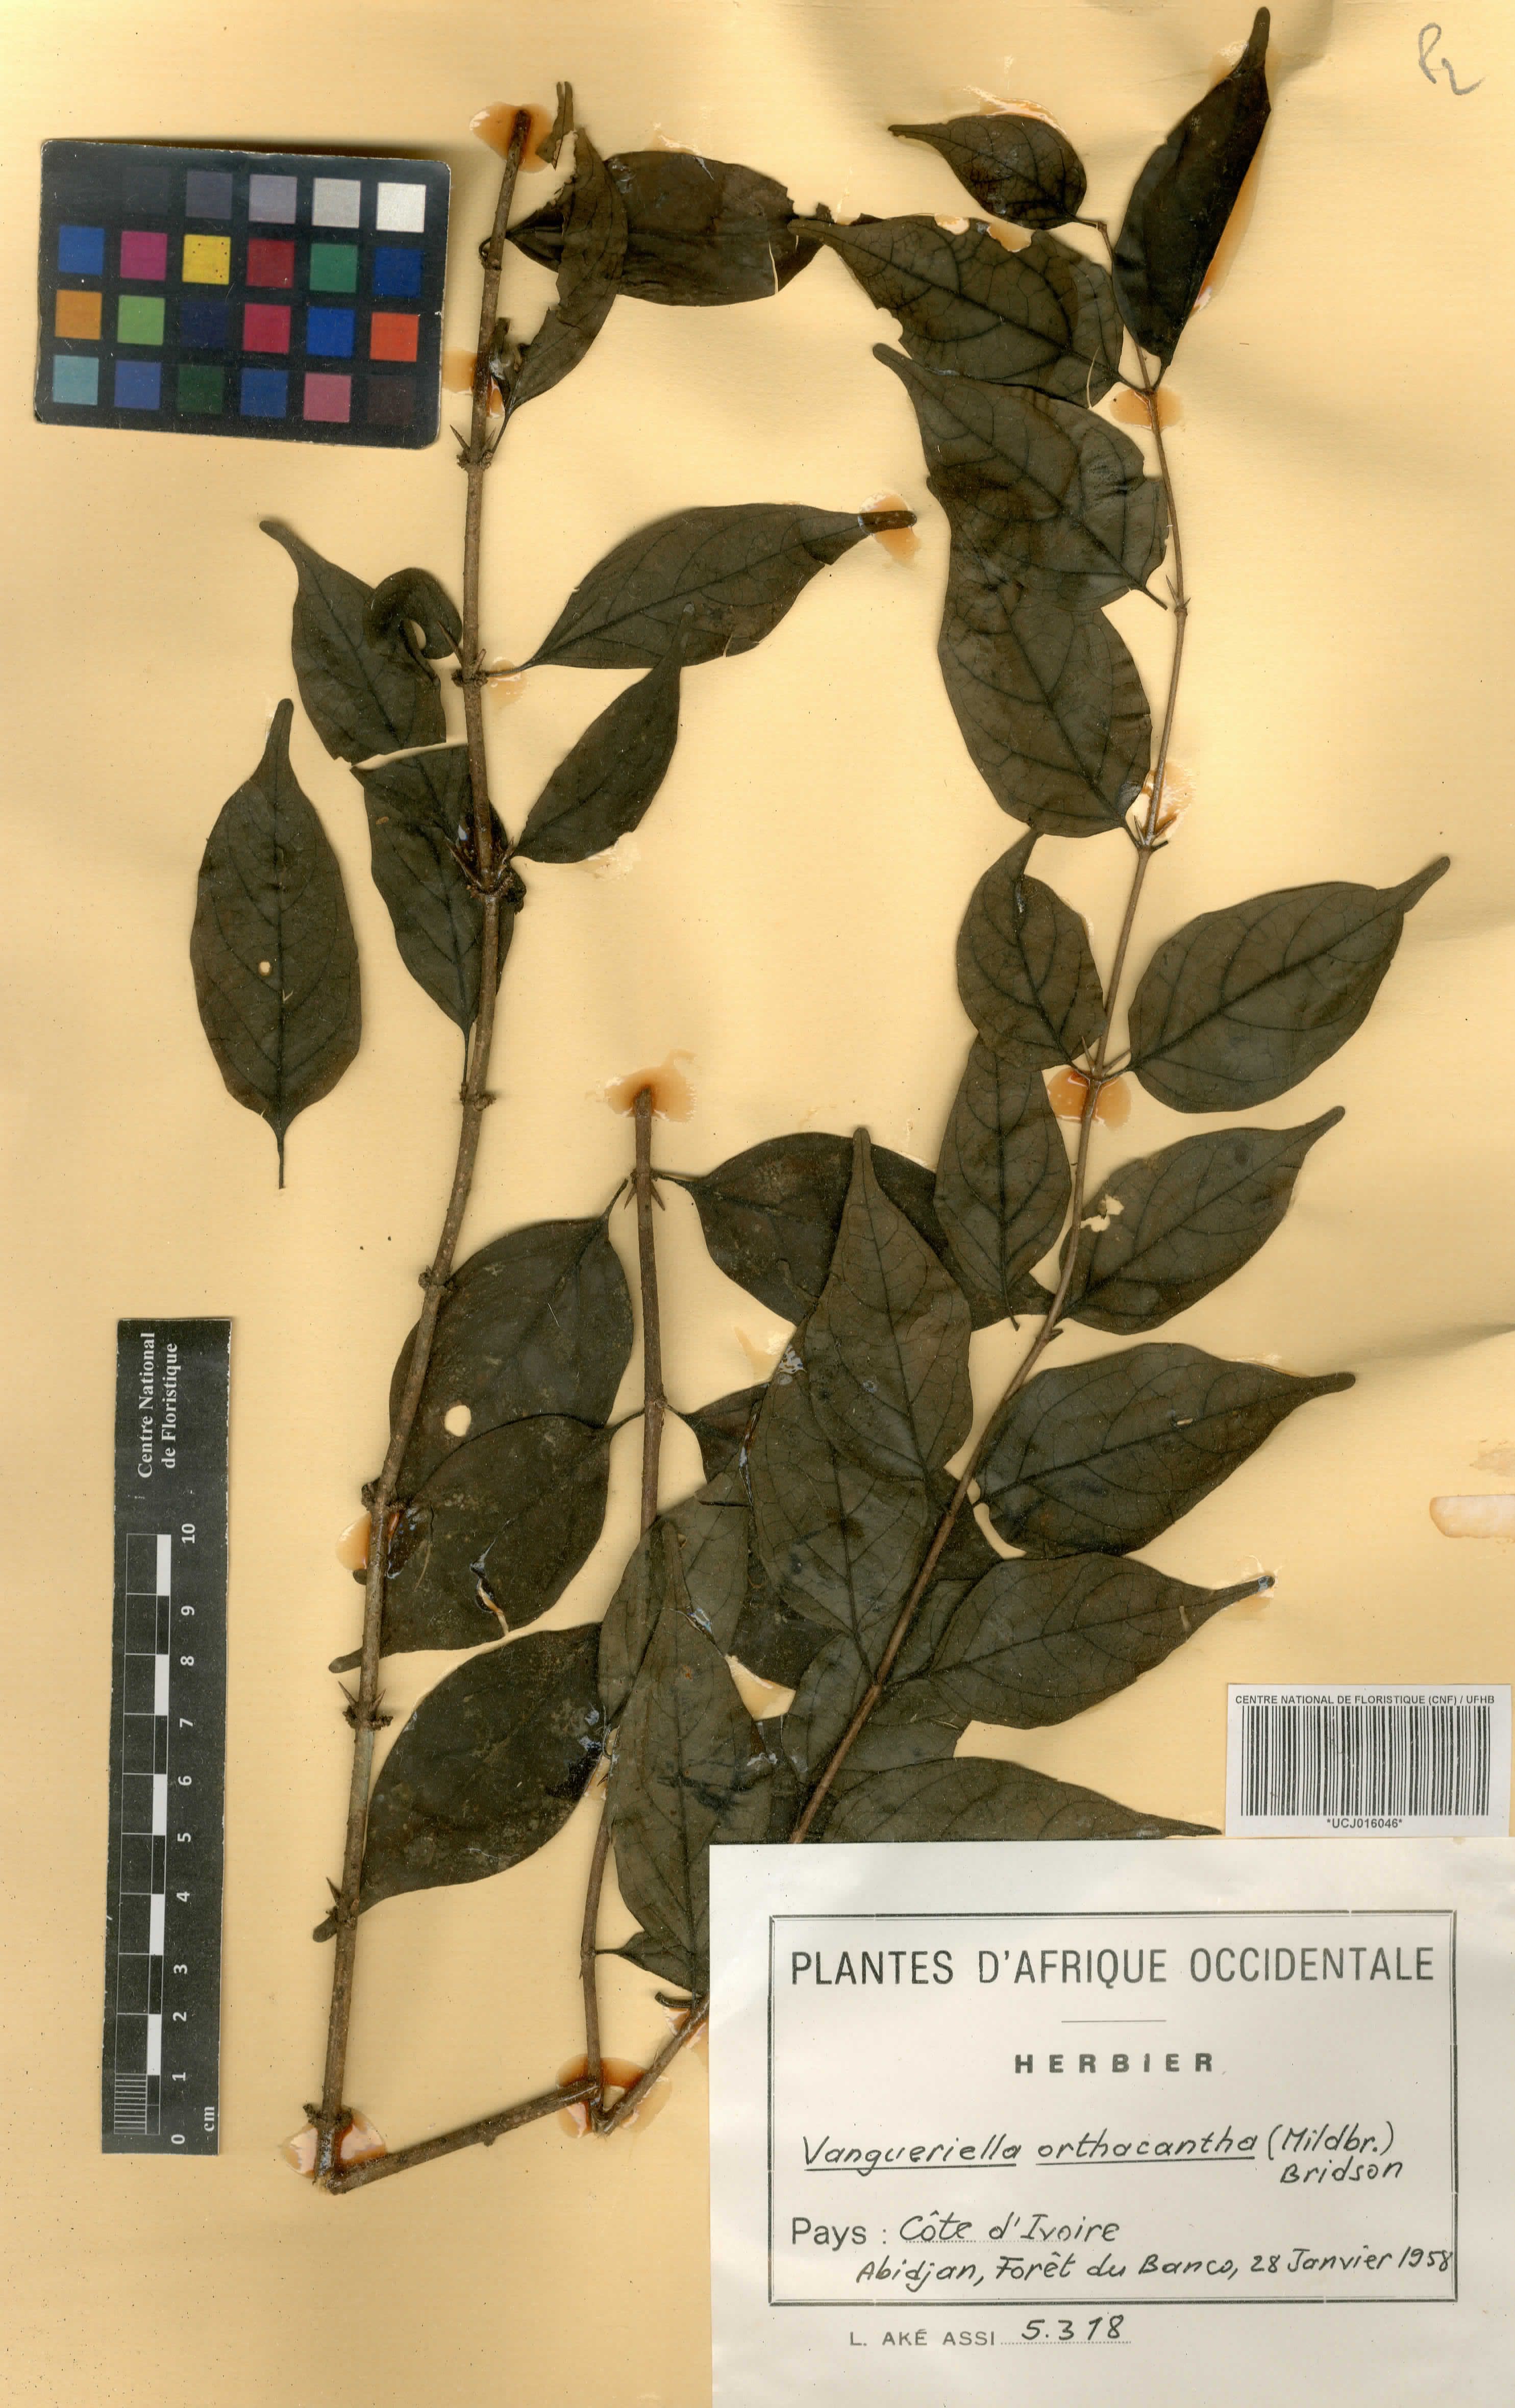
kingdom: Plantae
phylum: Tracheophyta
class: Magnoliopsida
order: Gentianales
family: Rubiaceae
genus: Vangueriella
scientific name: Vangueriella orthacantha
